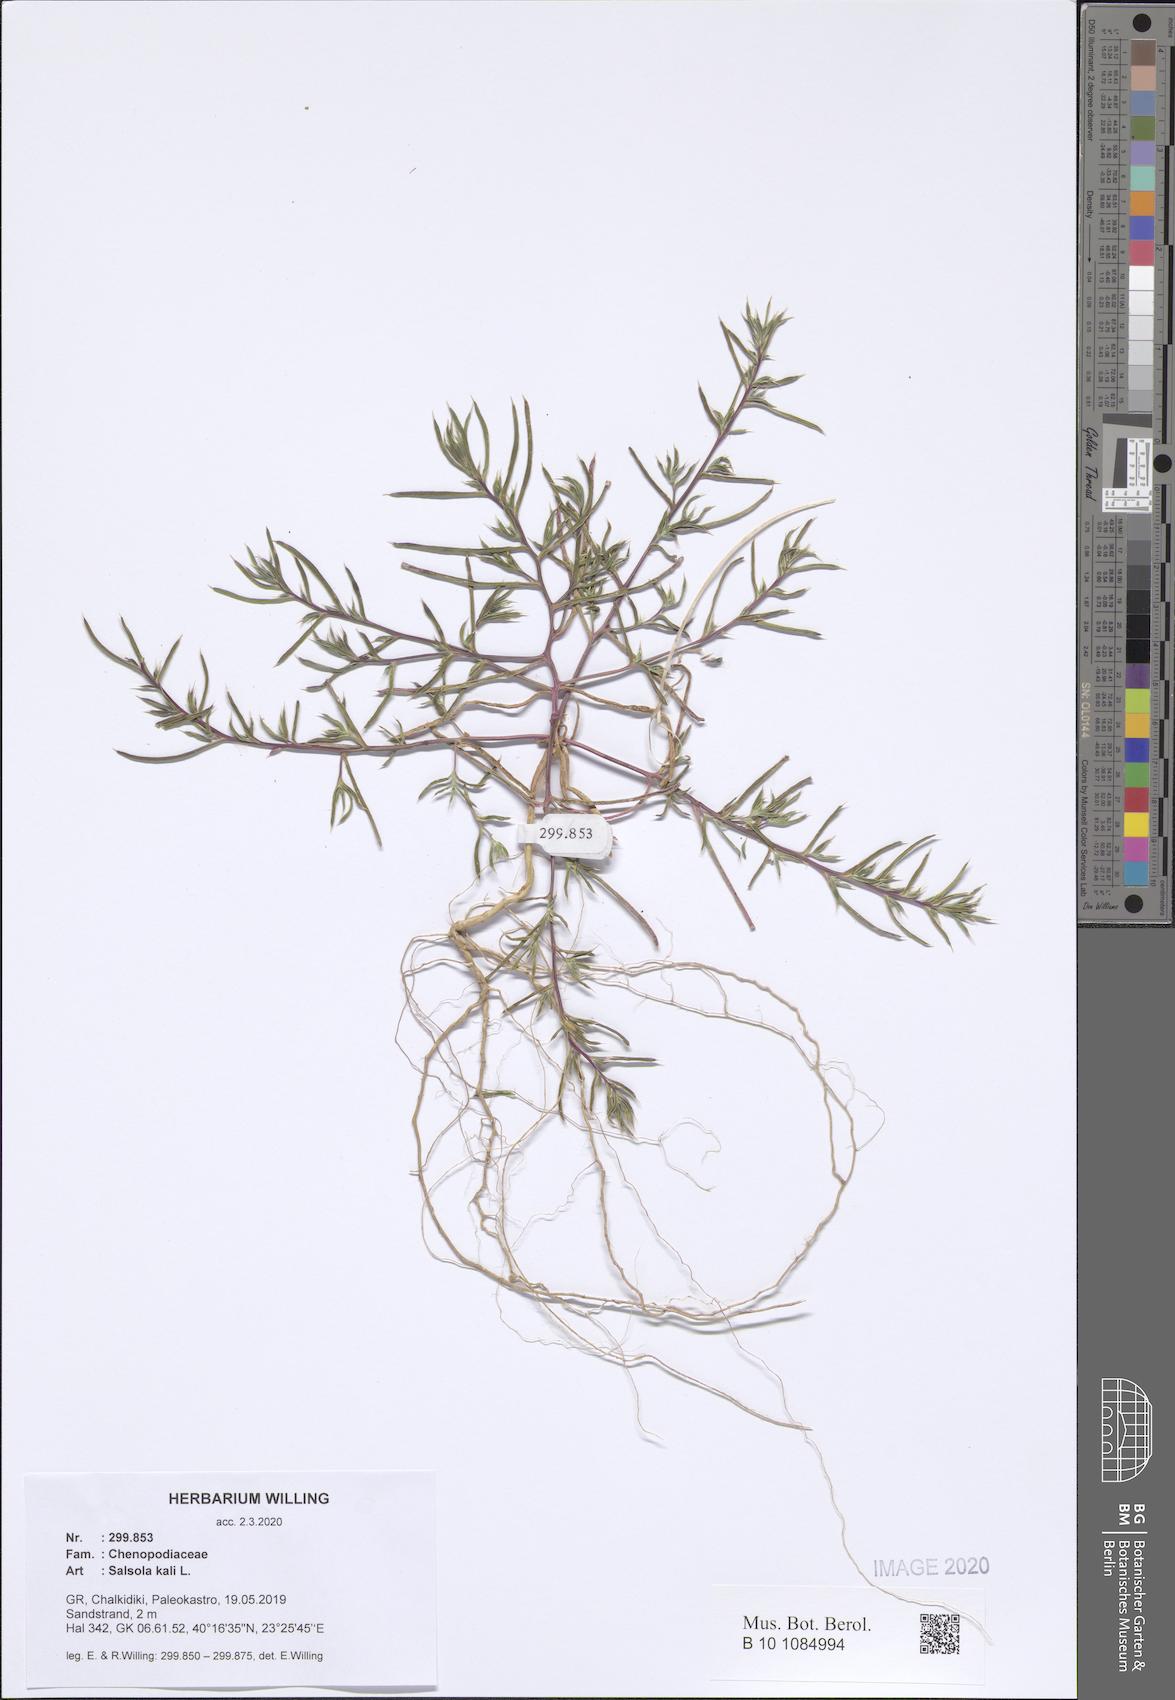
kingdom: Plantae
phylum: Tracheophyta
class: Magnoliopsida
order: Caryophyllales
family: Amaranthaceae
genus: Salsola
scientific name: Salsola kali
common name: Saltwort
